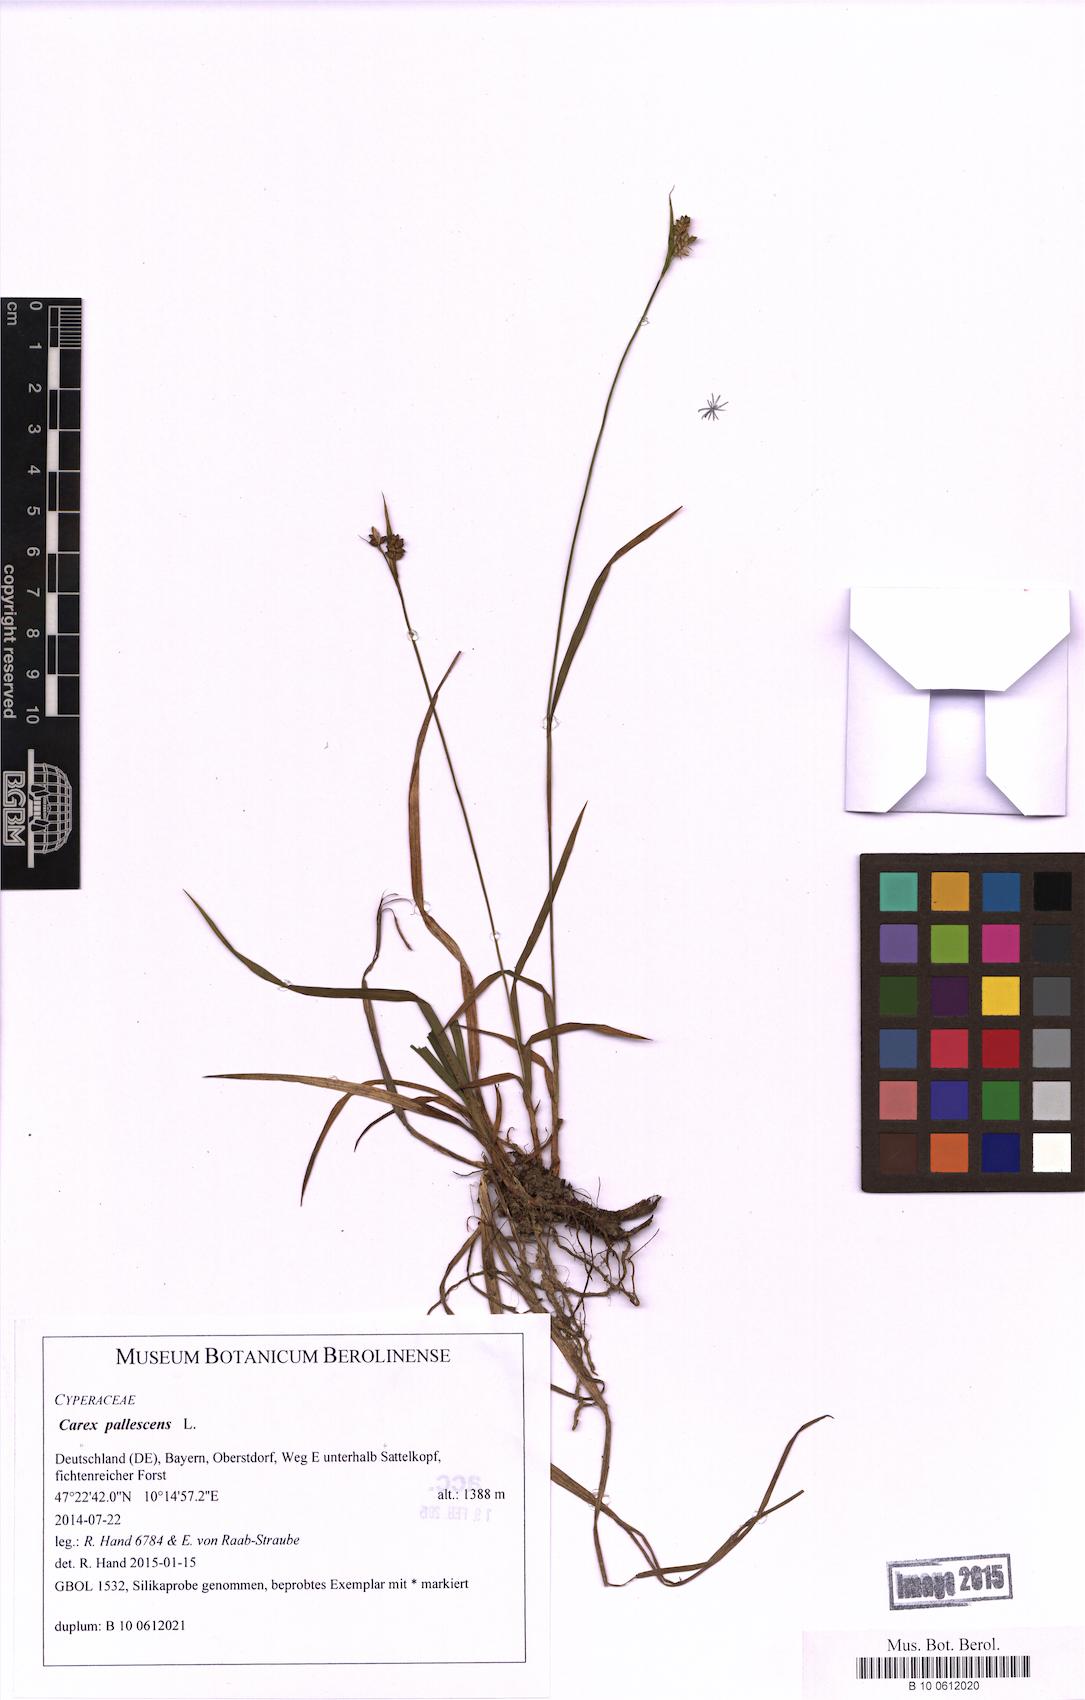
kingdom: Plantae
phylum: Tracheophyta
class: Liliopsida
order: Poales
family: Cyperaceae
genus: Carex
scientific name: Carex pallescens
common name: Pale sedge
